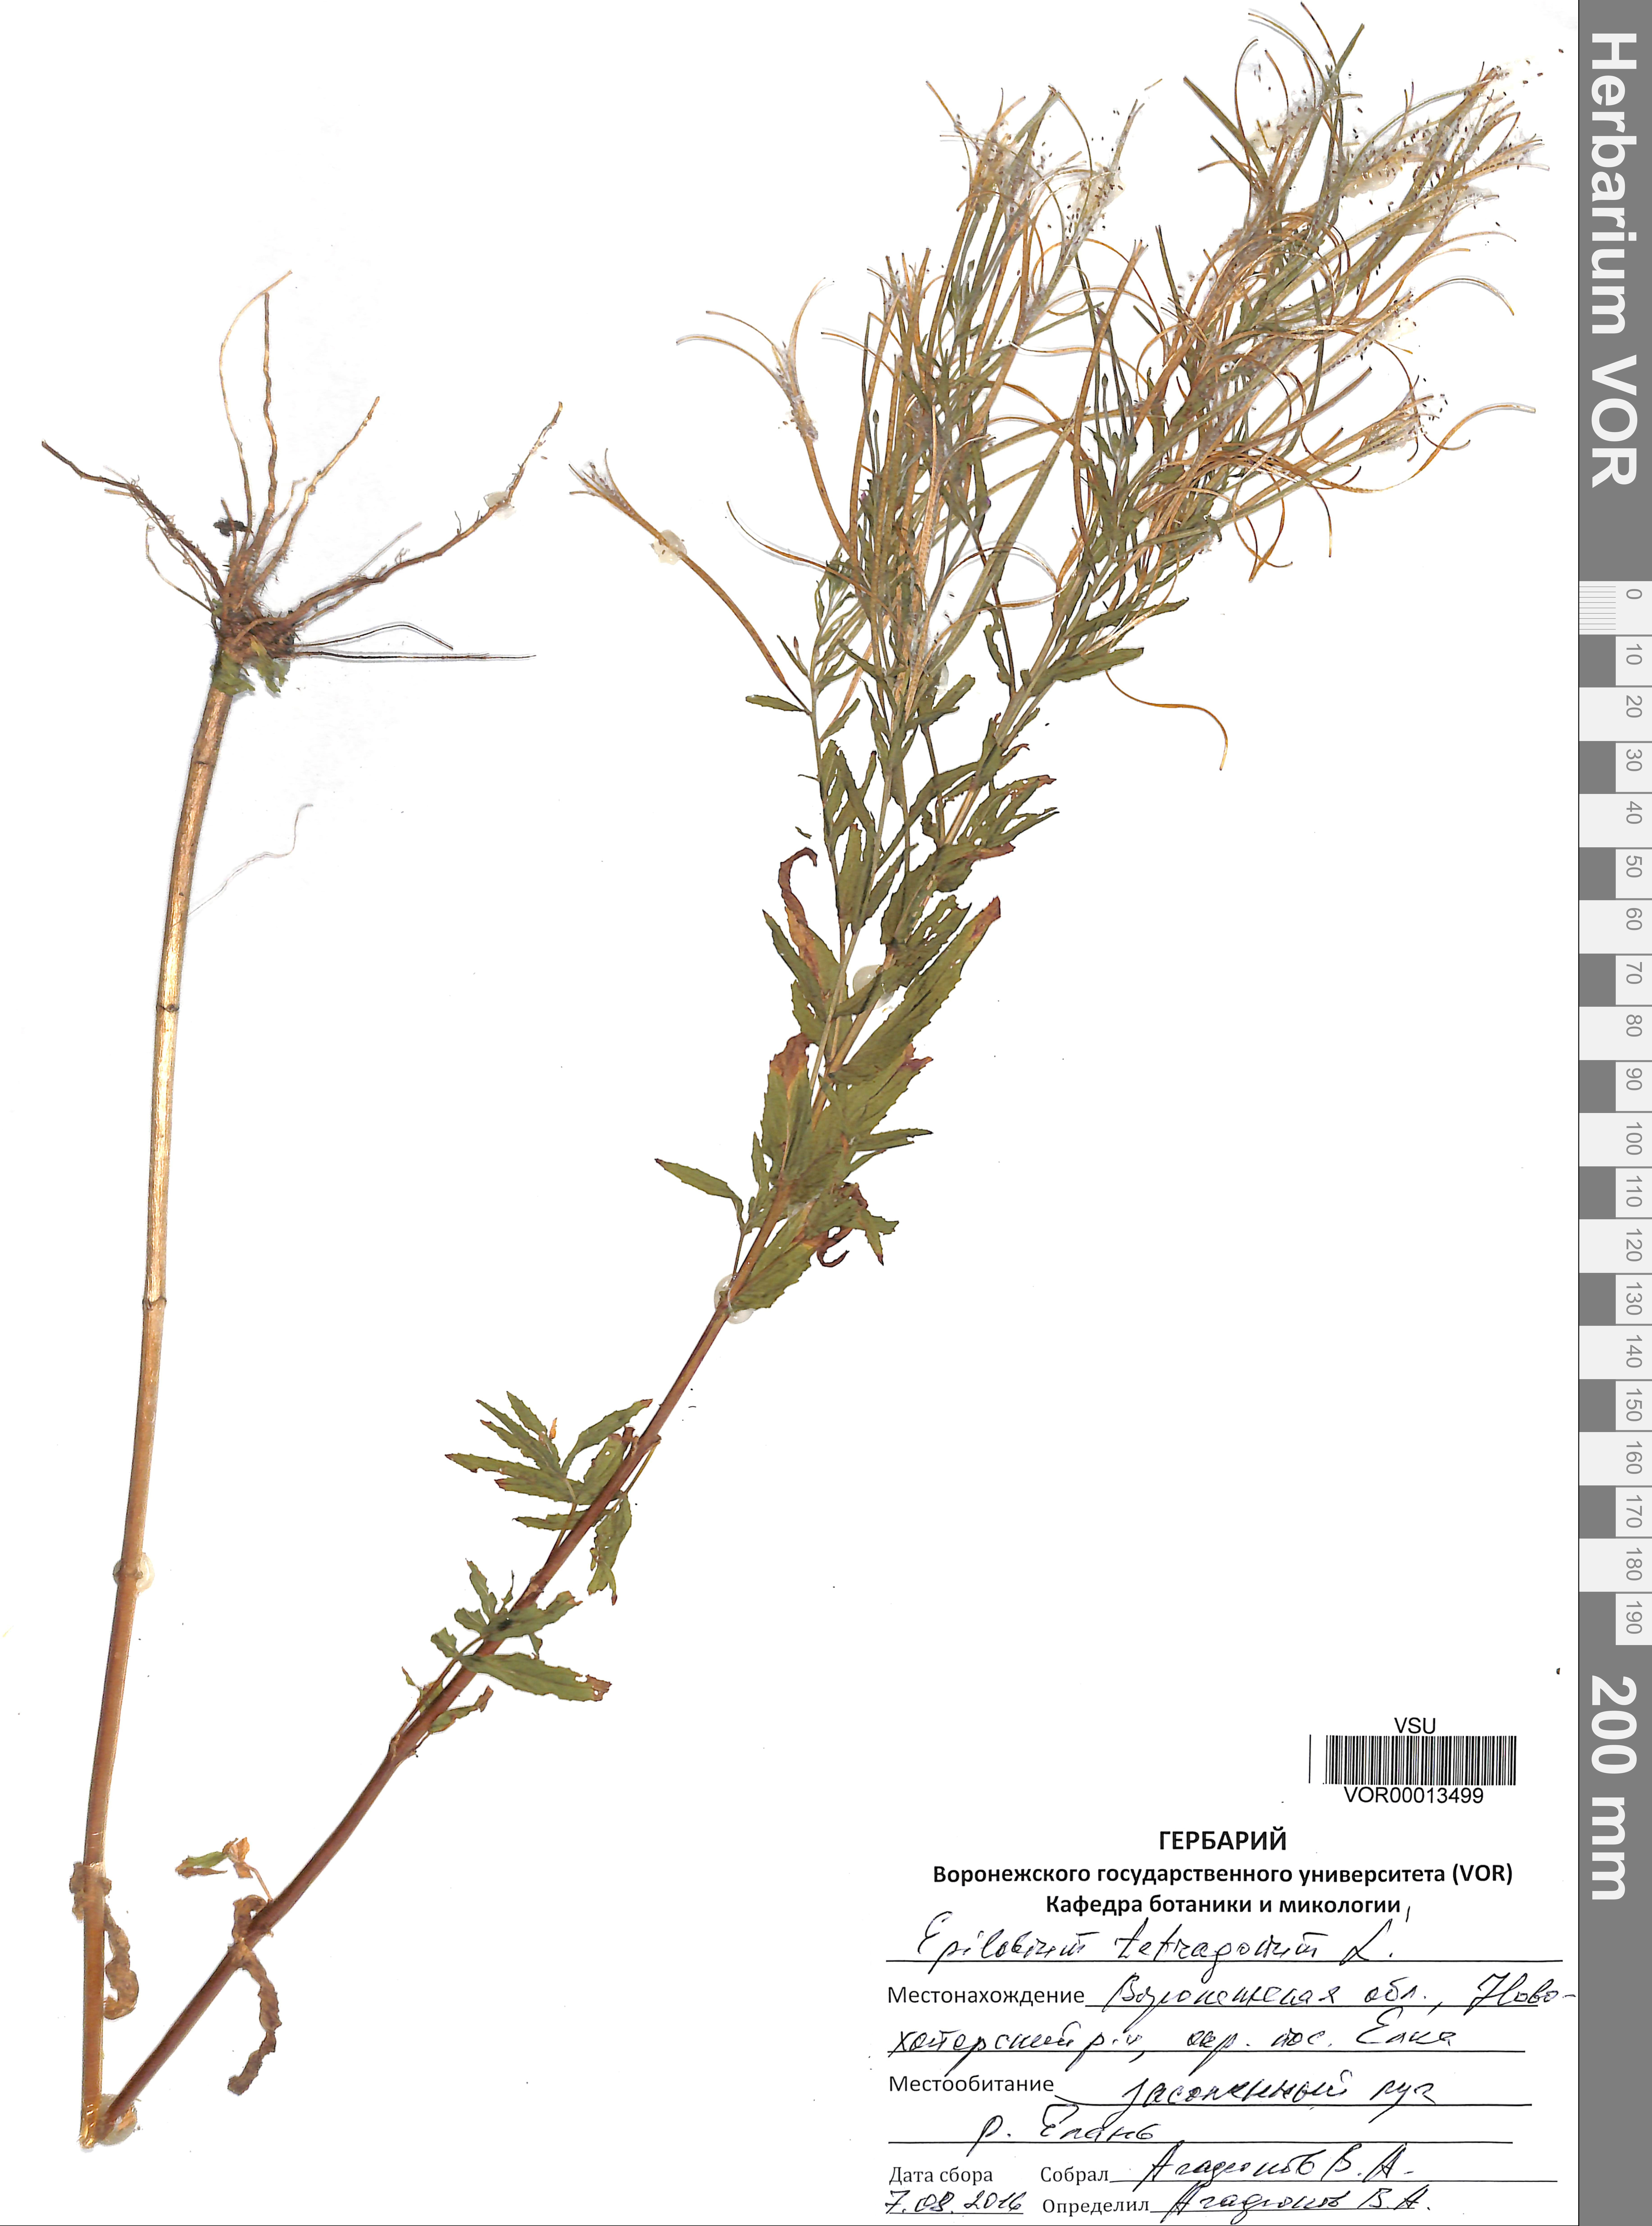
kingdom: Plantae
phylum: Tracheophyta
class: Magnoliopsida
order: Myrtales
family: Onagraceae
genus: Epilobium
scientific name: Epilobium tetragonum
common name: Square-stemmed willowherb
